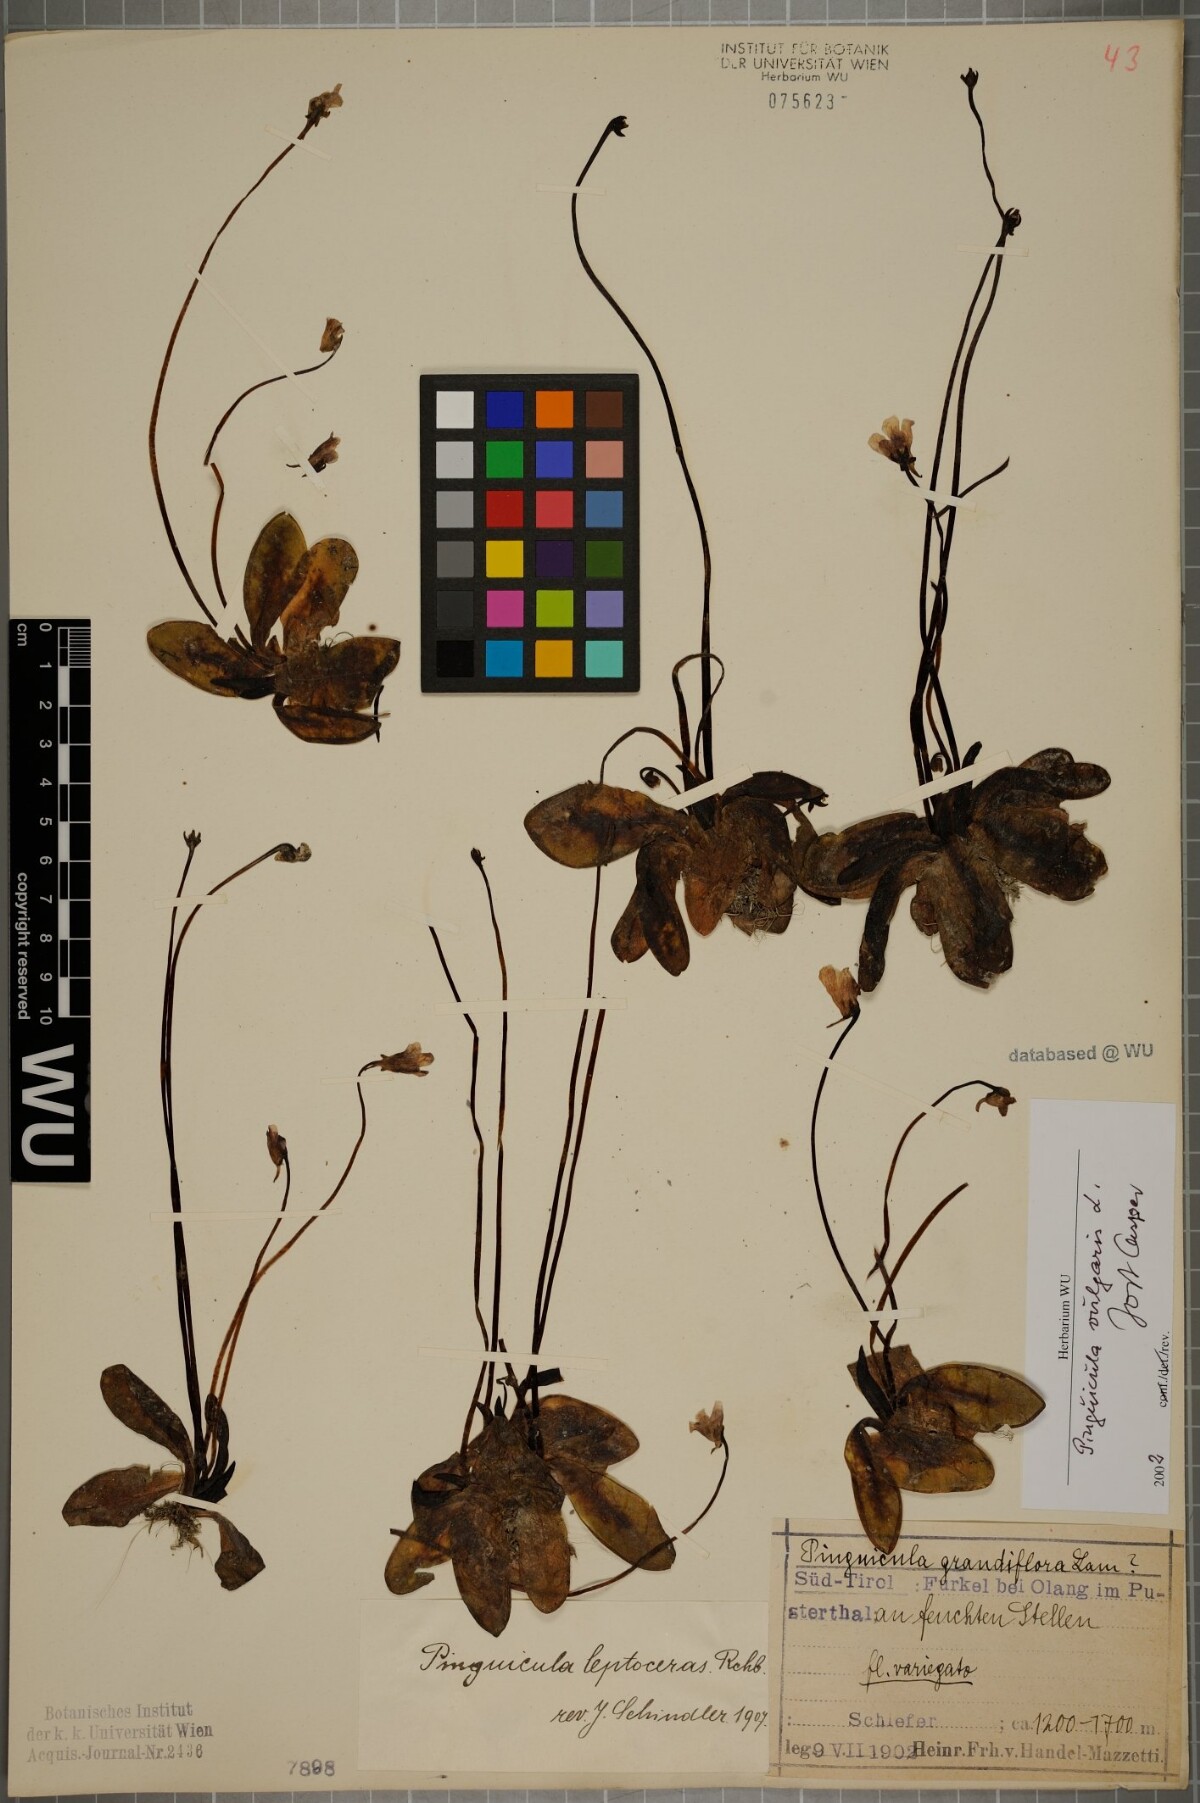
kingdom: Plantae
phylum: Tracheophyta
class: Magnoliopsida
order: Lamiales
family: Lentibulariaceae
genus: Pinguicula
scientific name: Pinguicula vulgaris
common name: Common butterwort
